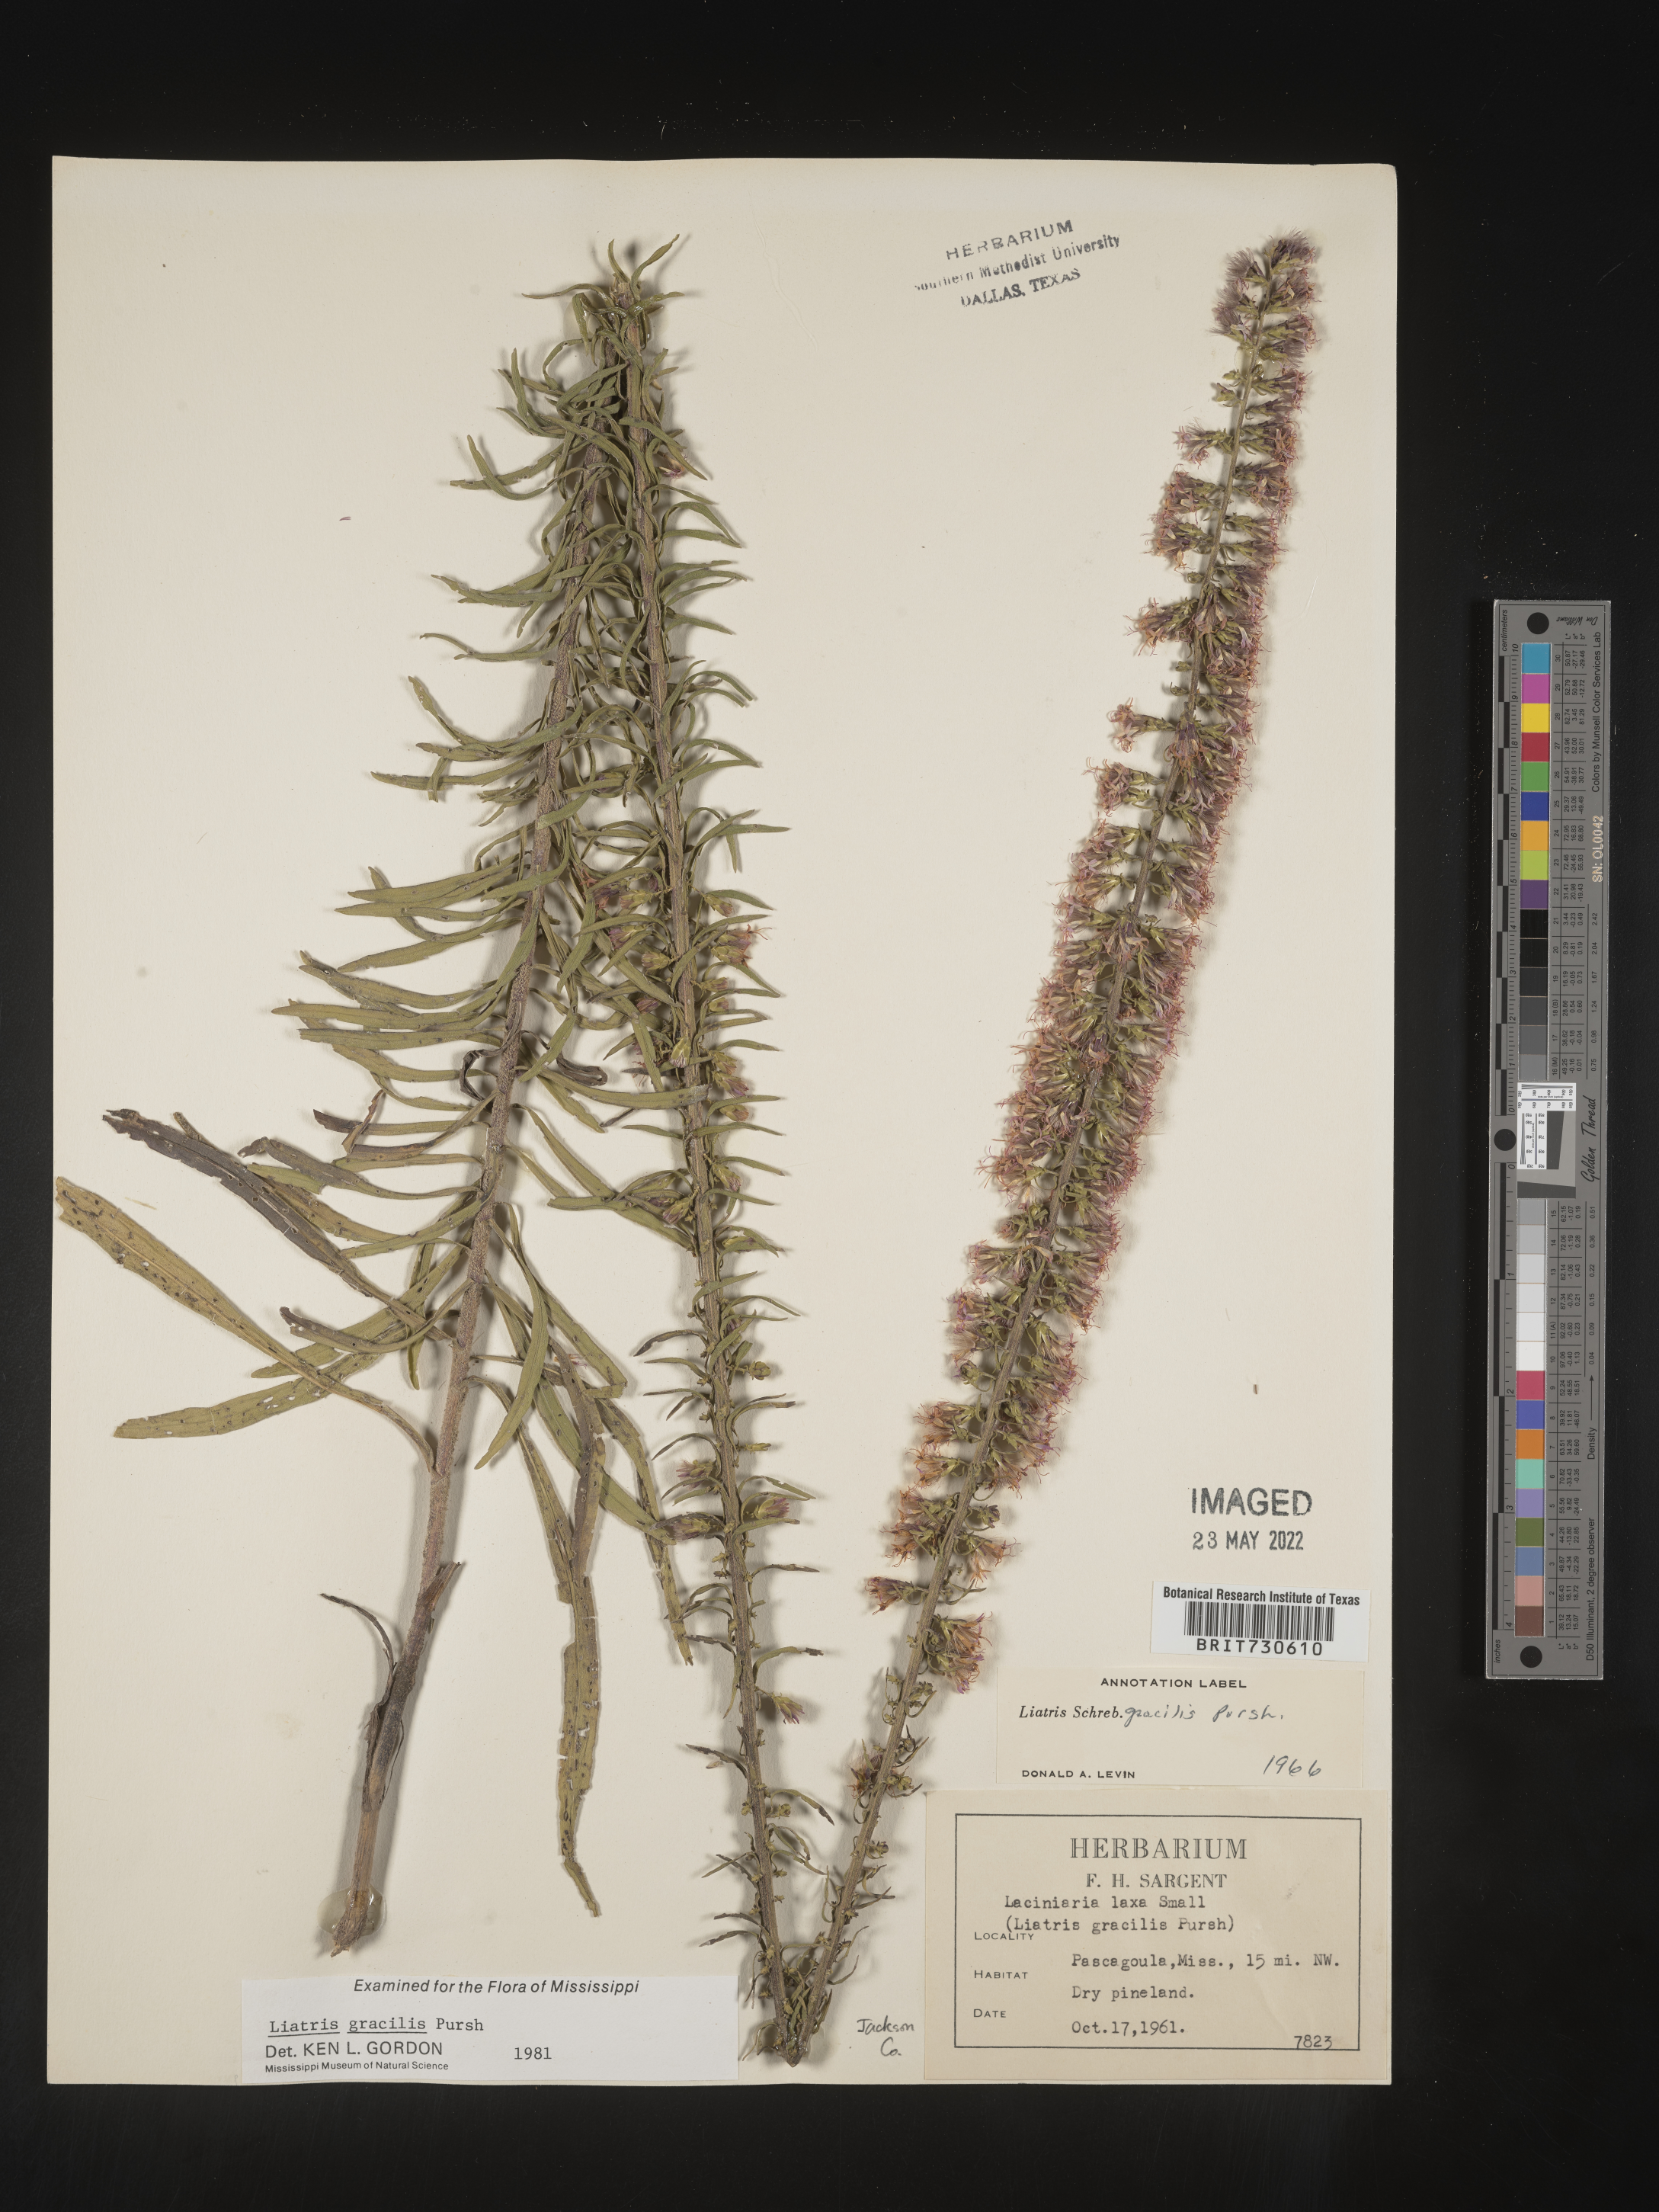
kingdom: Plantae
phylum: Tracheophyta
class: Magnoliopsida
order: Asterales
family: Asteraceae
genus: Liatris
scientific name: Liatris gracilis
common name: Slender gayfeather
